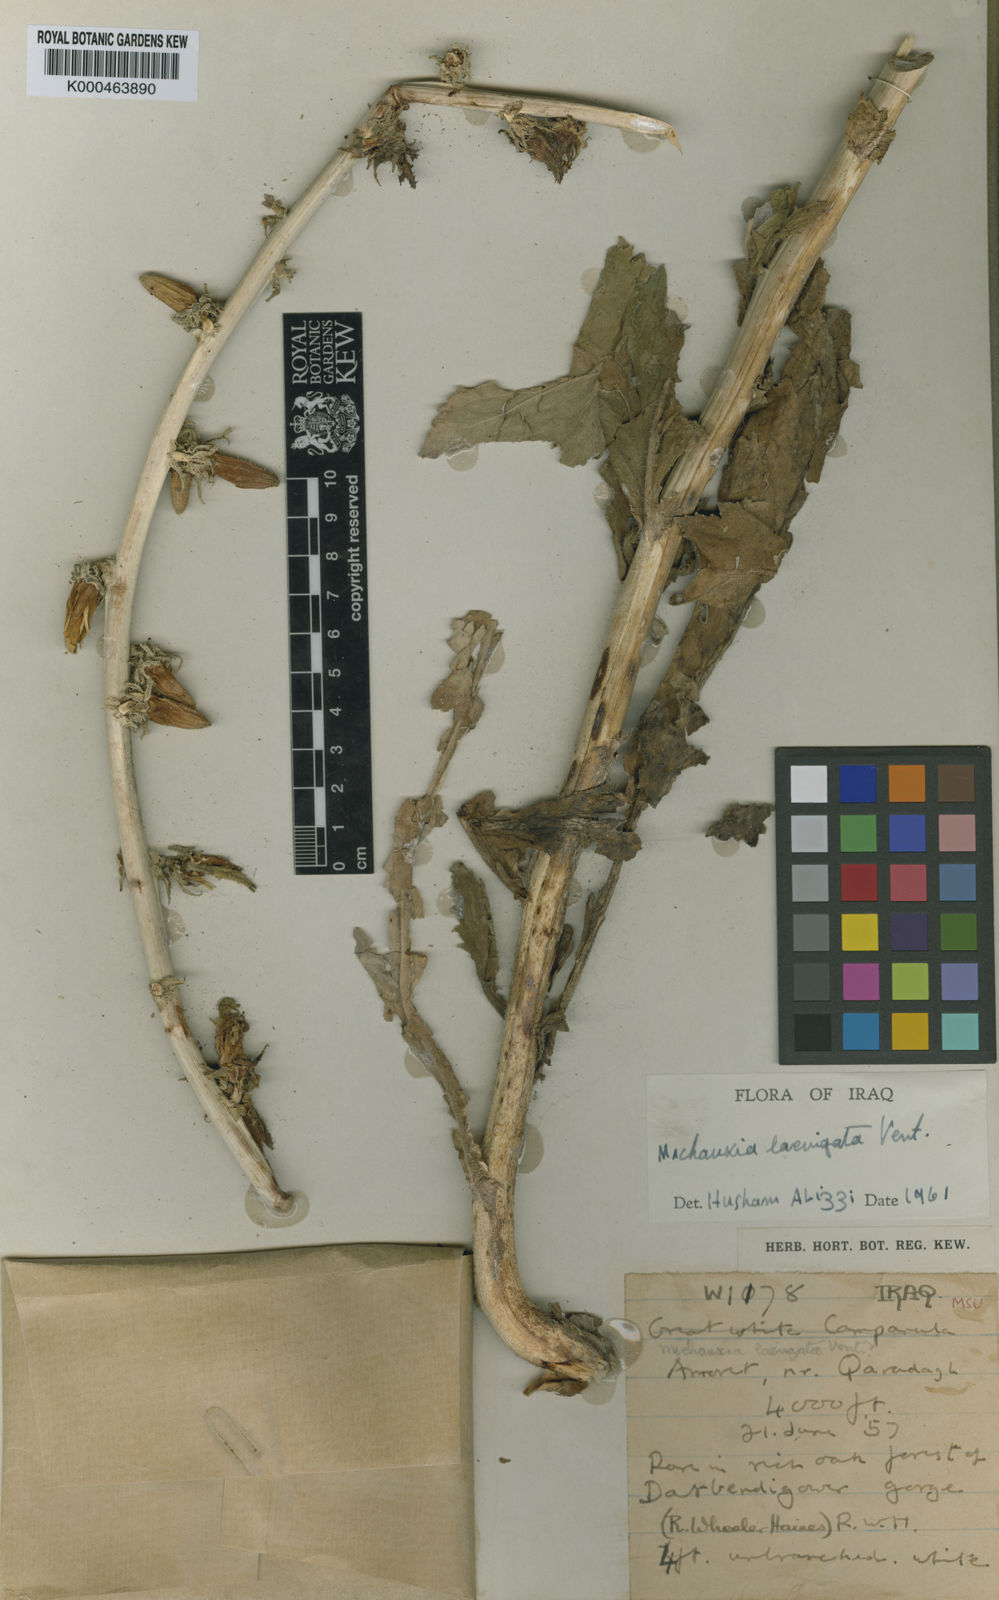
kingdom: Plantae
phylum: Tracheophyta
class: Magnoliopsida
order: Asterales
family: Campanulaceae
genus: Michauxia
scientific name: Michauxia laevigata
